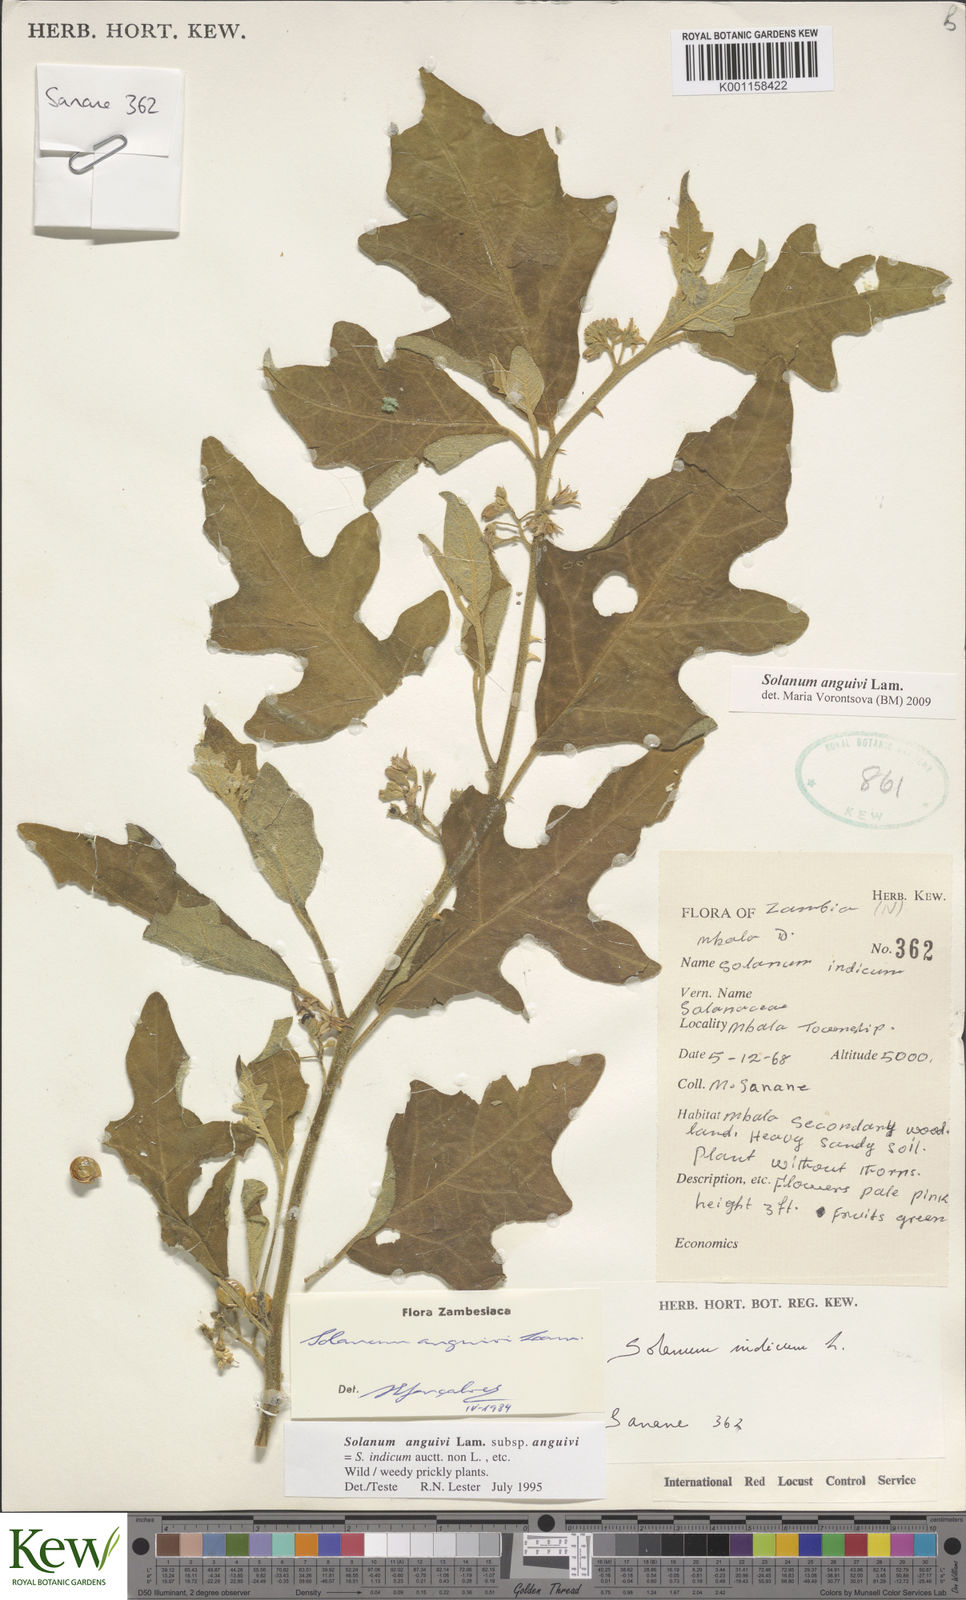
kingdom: Plantae
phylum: Tracheophyta
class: Magnoliopsida
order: Solanales
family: Solanaceae
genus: Solanum
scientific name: Solanum anguivi
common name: Forest bitterberry
